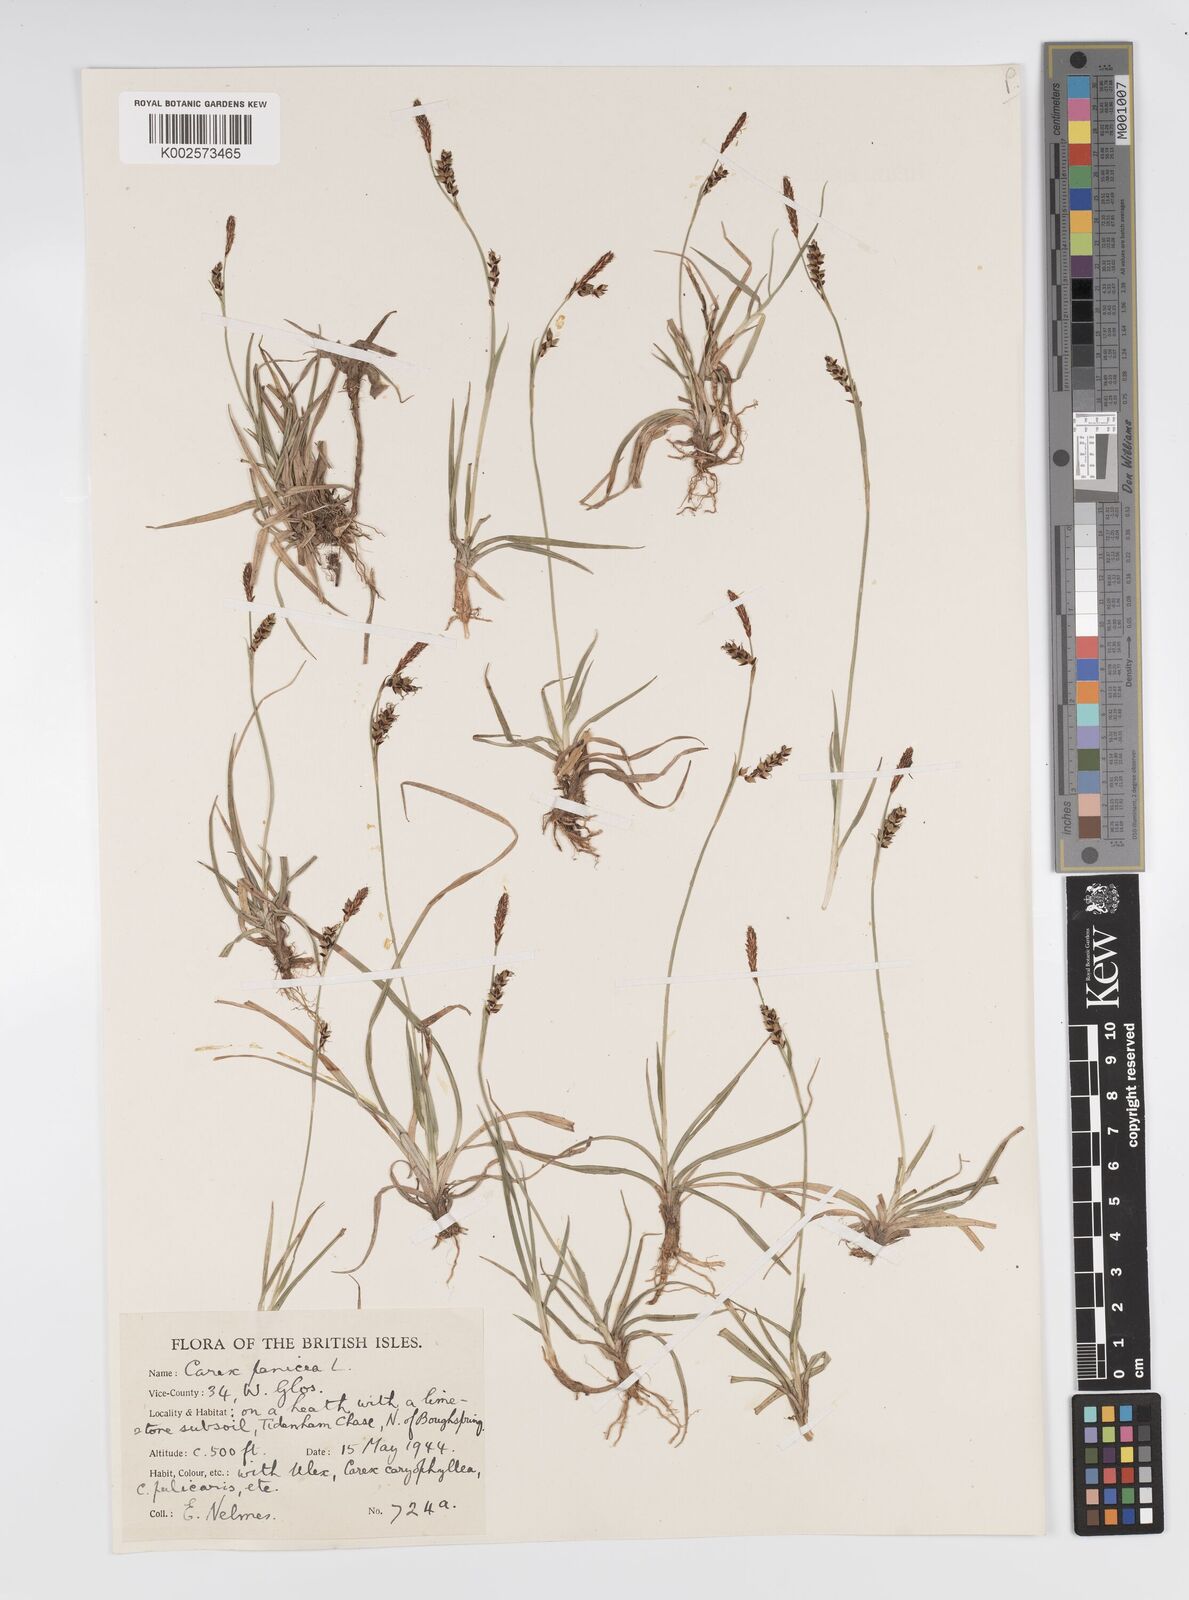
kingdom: Plantae
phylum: Tracheophyta
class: Liliopsida
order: Poales
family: Cyperaceae
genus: Carex
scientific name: Carex panicea
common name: Carnation sedge
